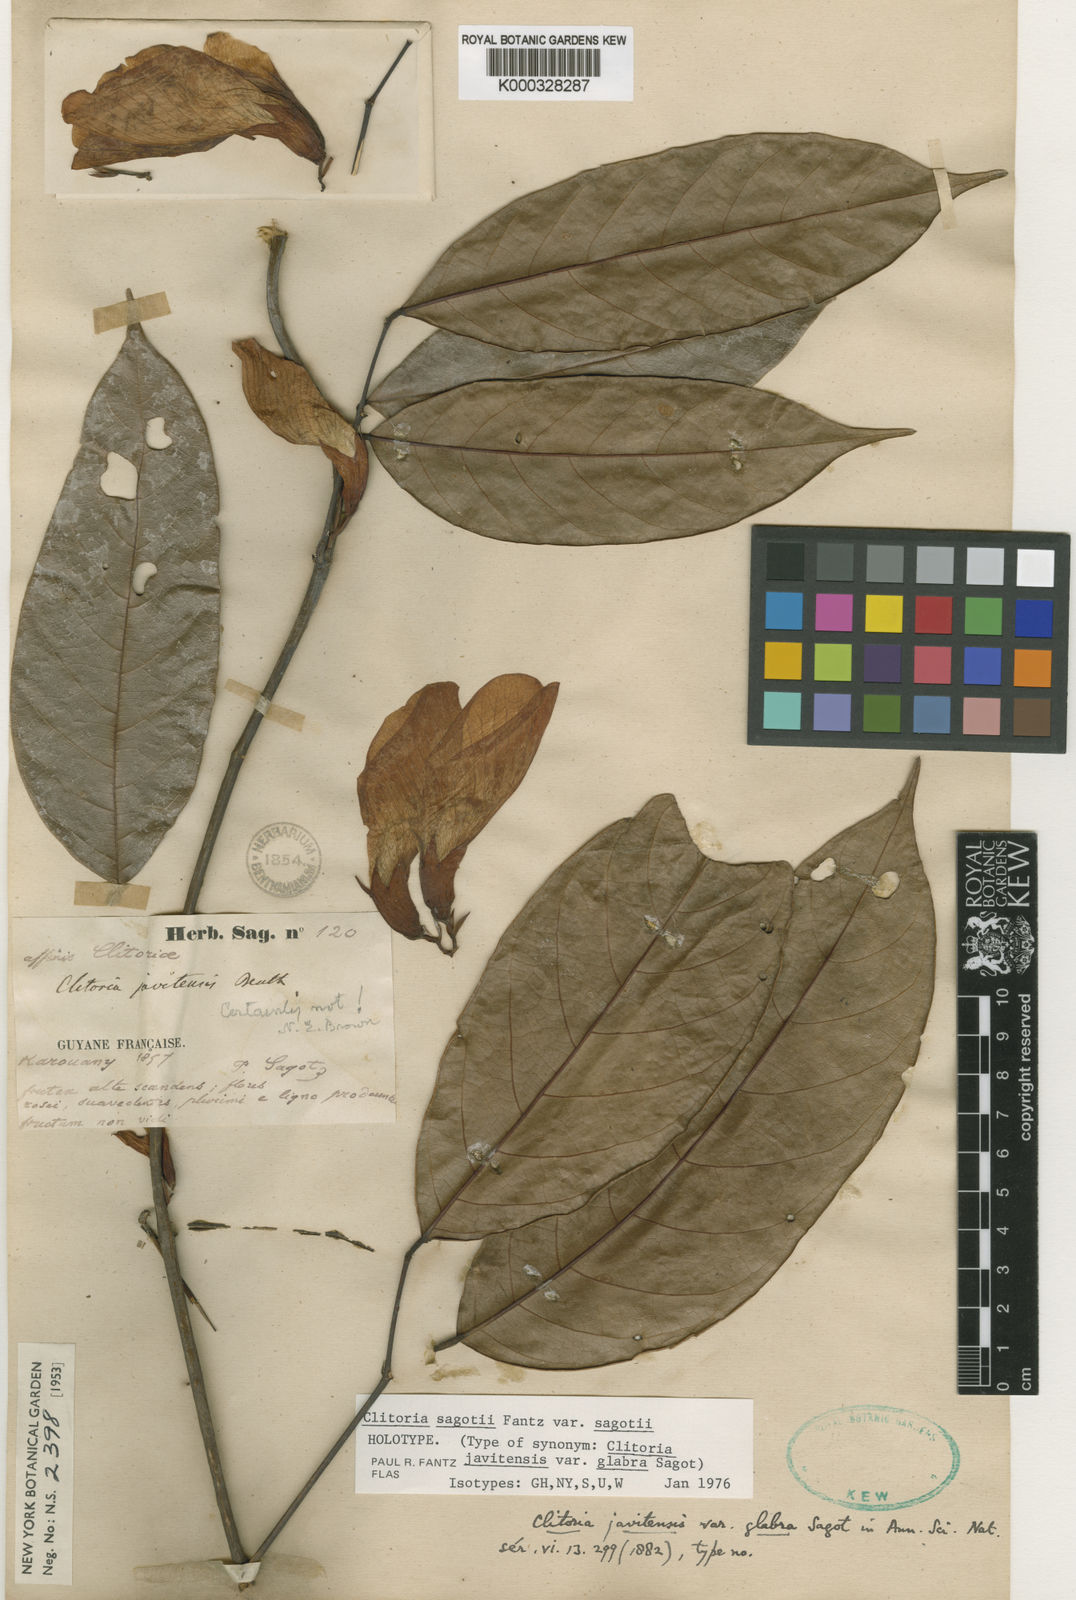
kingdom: Plantae
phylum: Tracheophyta
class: Magnoliopsida
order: Fabales
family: Fabaceae
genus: Clitoria
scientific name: Clitoria sagotii
